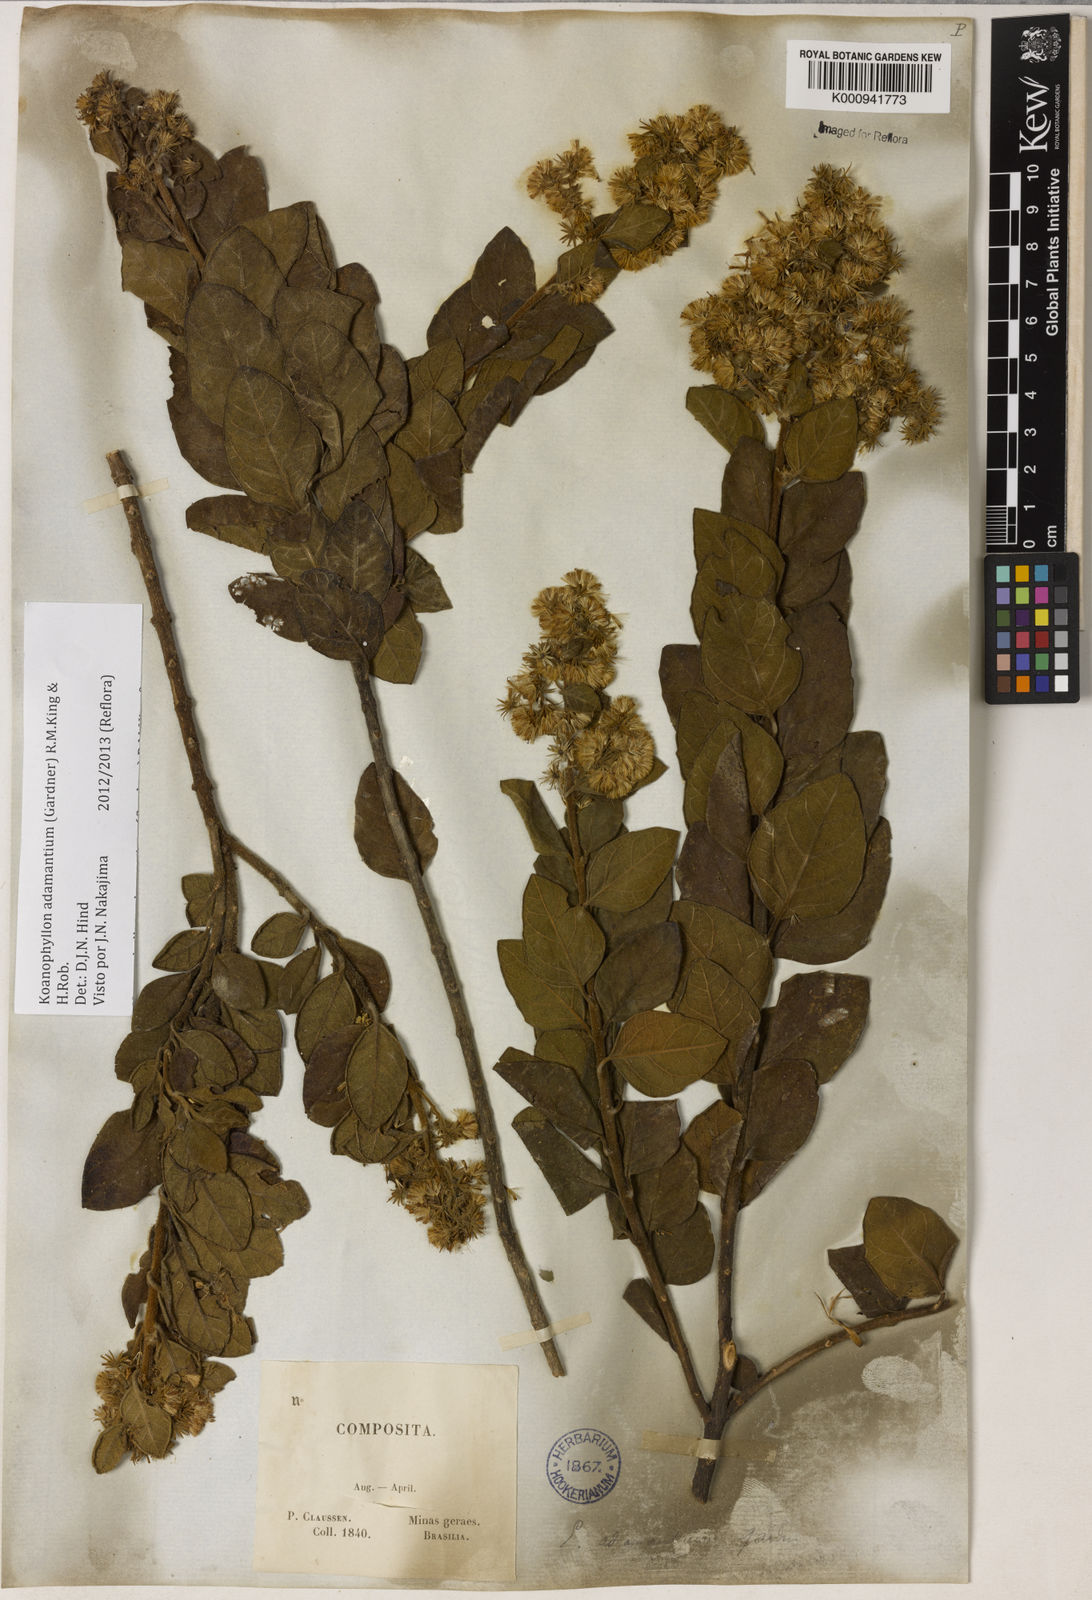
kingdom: Plantae
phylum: Tracheophyta
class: Magnoliopsida
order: Asterales
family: Asteraceae
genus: Koanophyllon
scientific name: Koanophyllon adamantium
